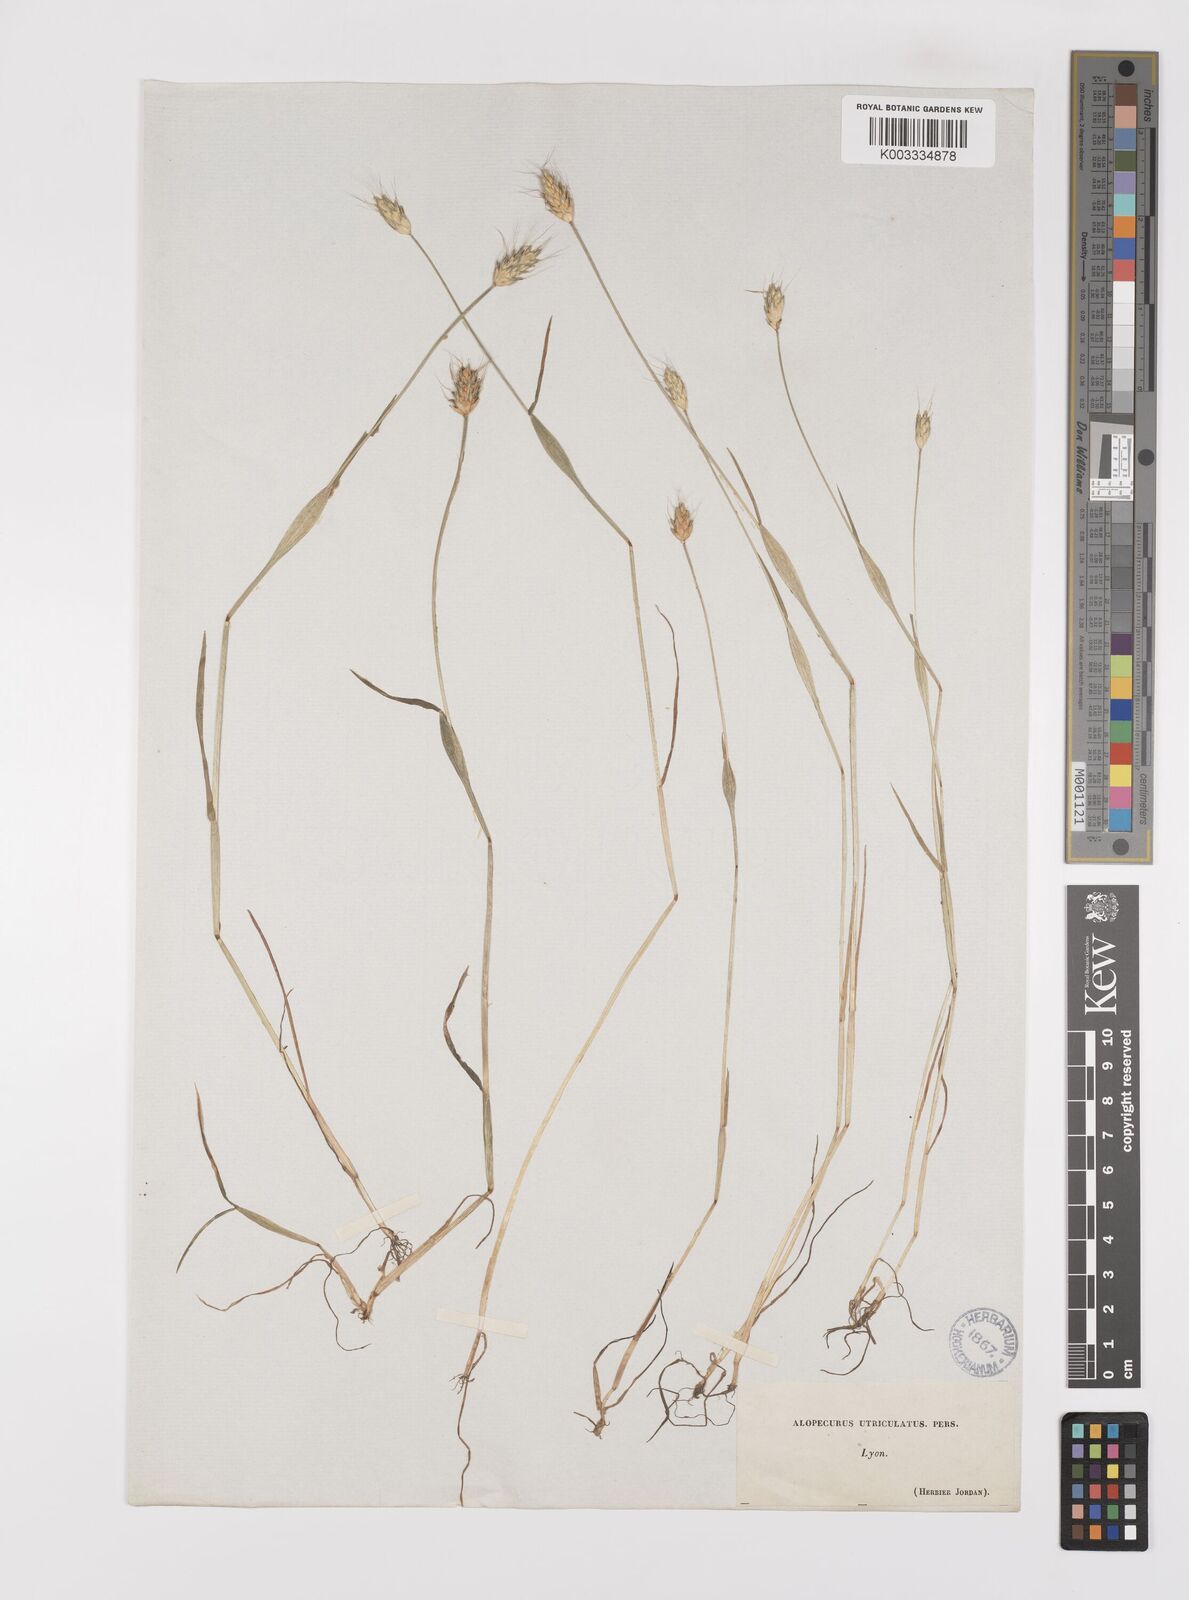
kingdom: Plantae
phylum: Tracheophyta
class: Liliopsida
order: Poales
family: Poaceae
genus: Alopecurus
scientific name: Alopecurus rendlei
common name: Rendle's meadow foxtail
